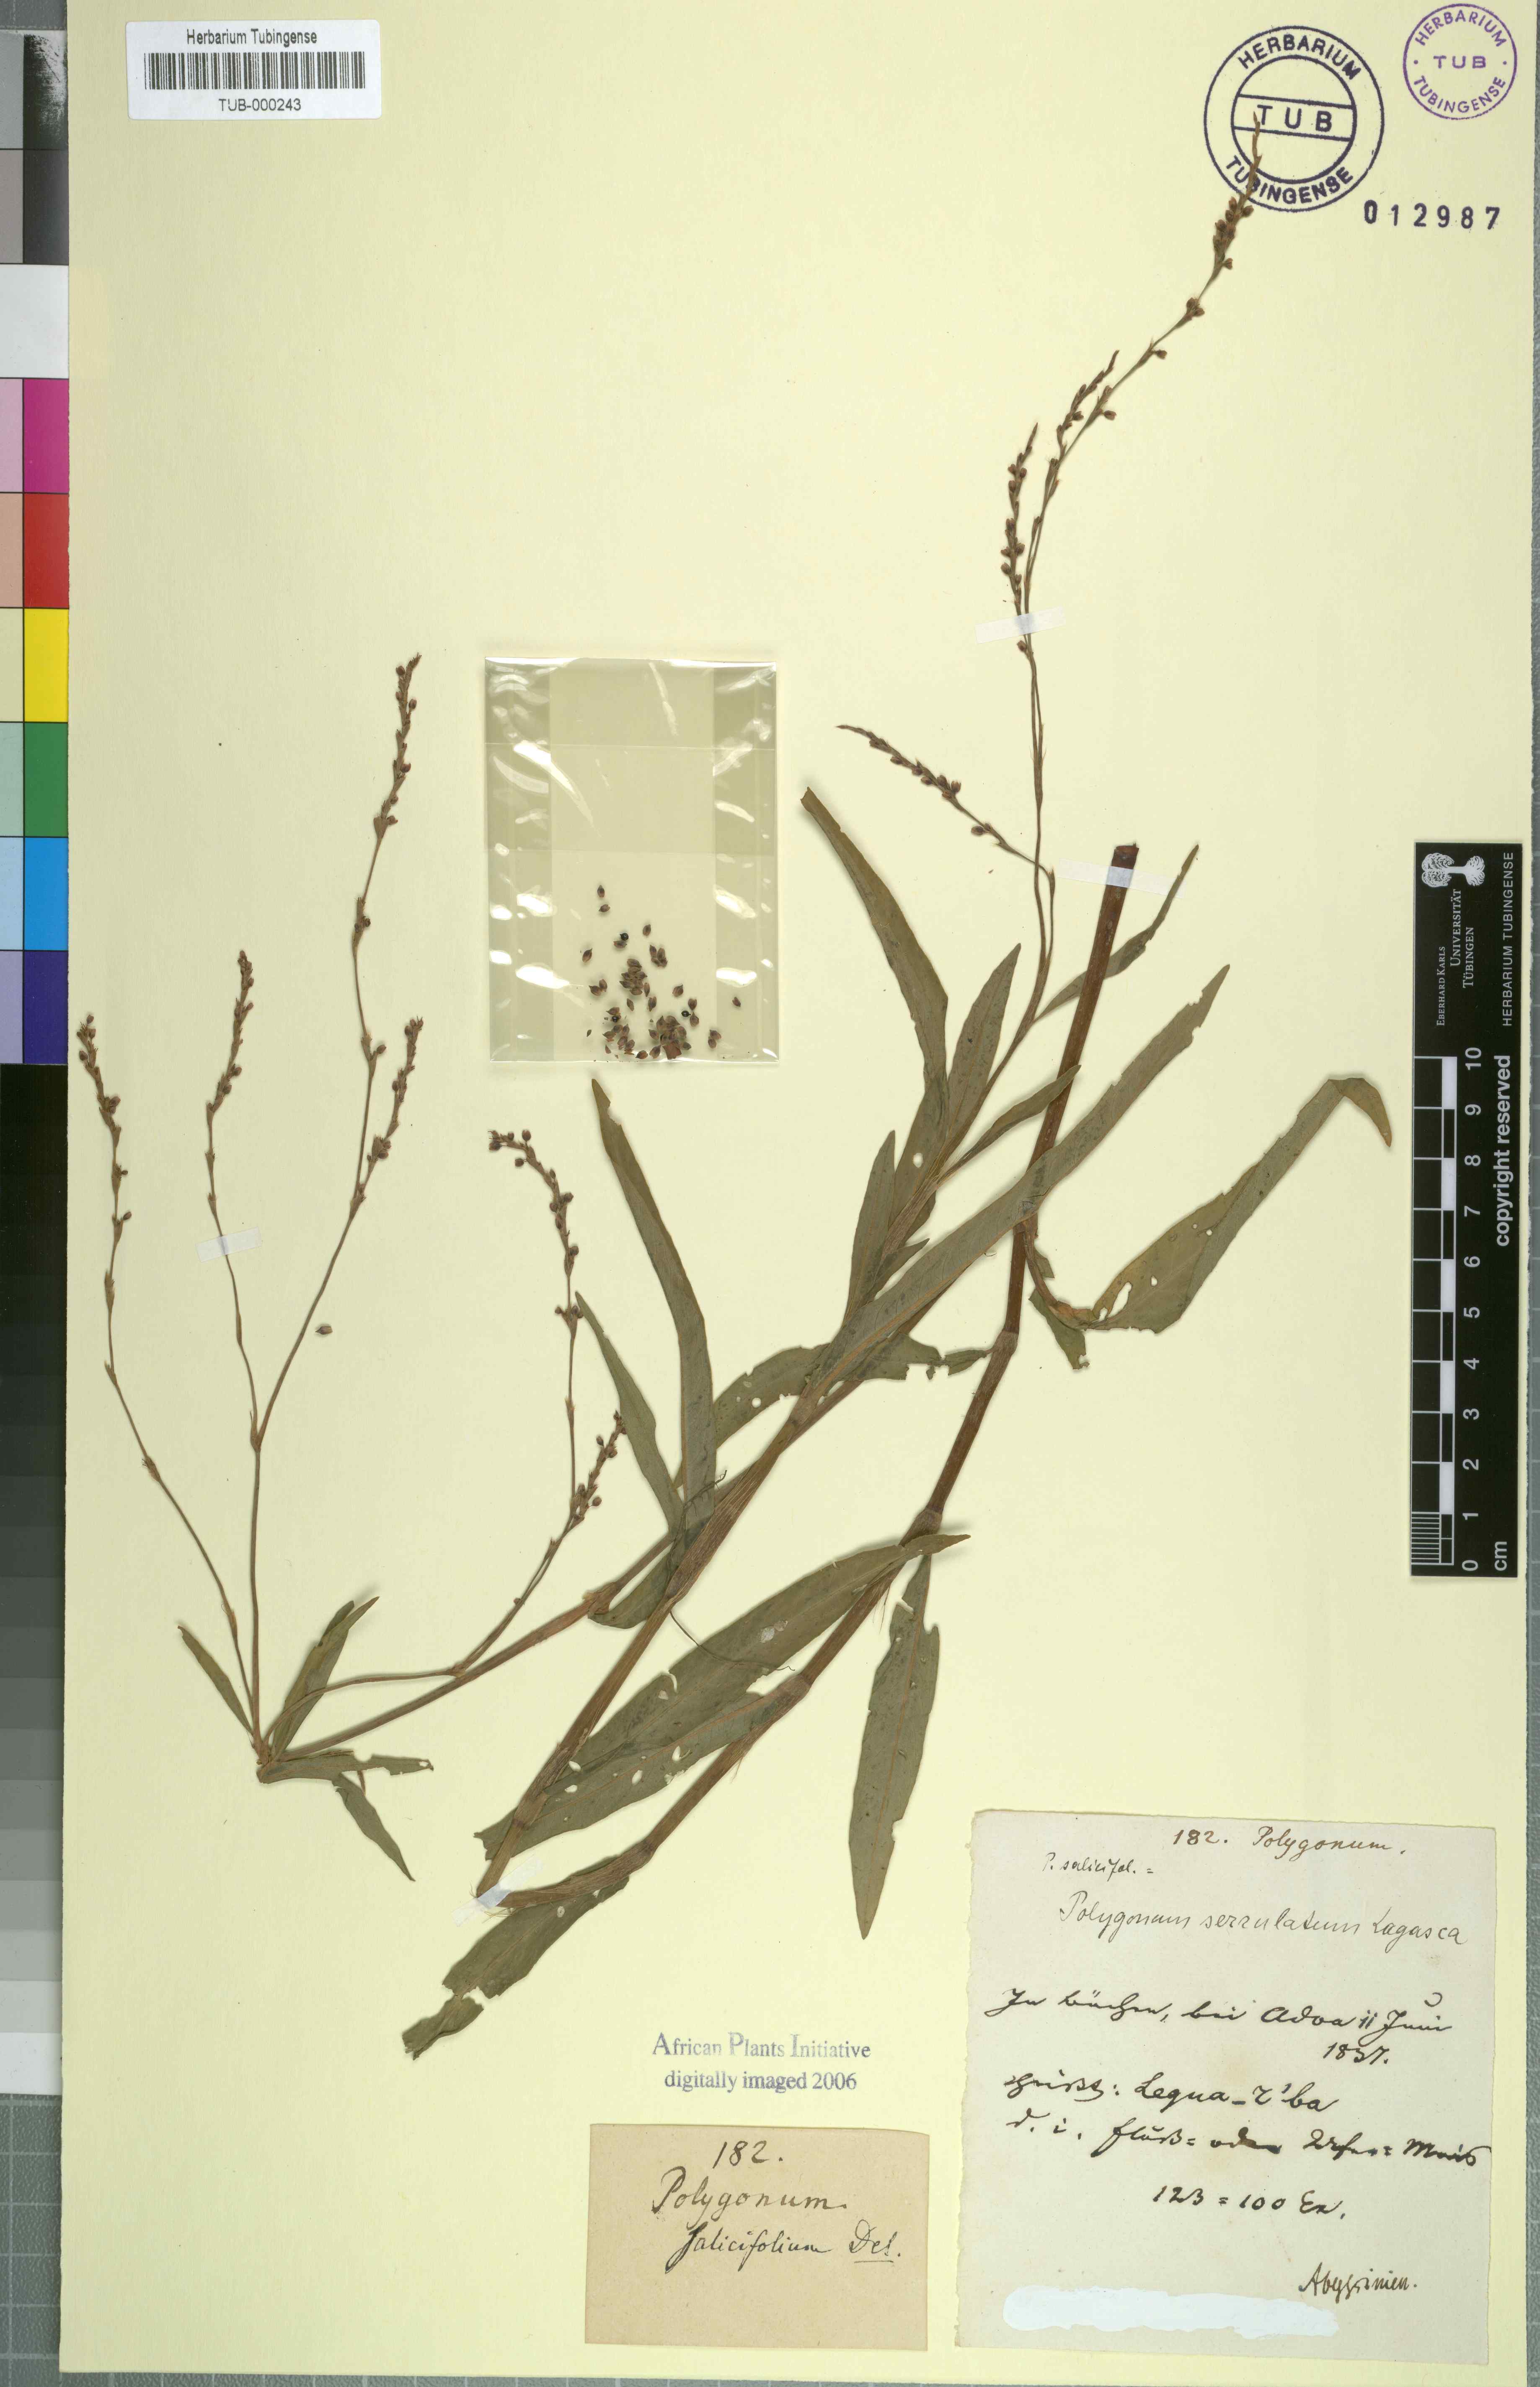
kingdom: Plantae
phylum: Tracheophyta
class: Magnoliopsida
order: Caryophyllales
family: Polygonaceae
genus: Polygonum
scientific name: Polygonum salicifolium
